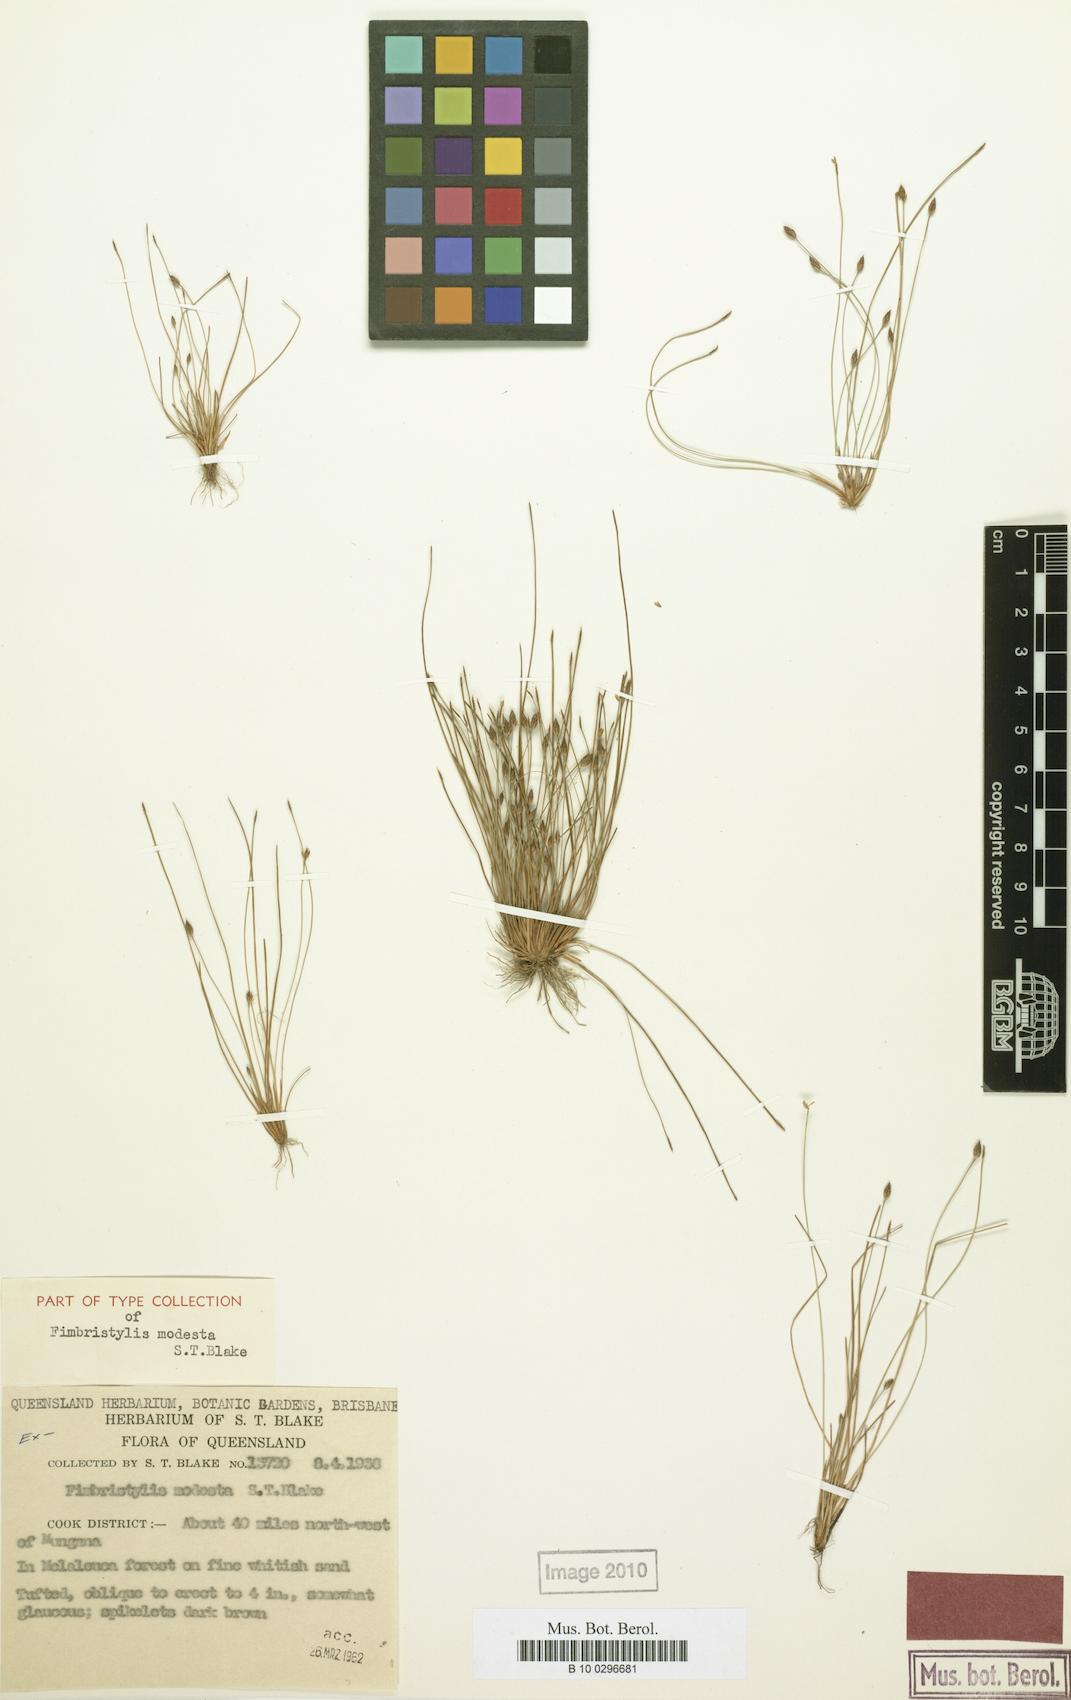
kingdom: Plantae
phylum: Tracheophyta
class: Liliopsida
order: Poales
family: Cyperaceae
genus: Fimbristylis
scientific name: Fimbristylis modesta
